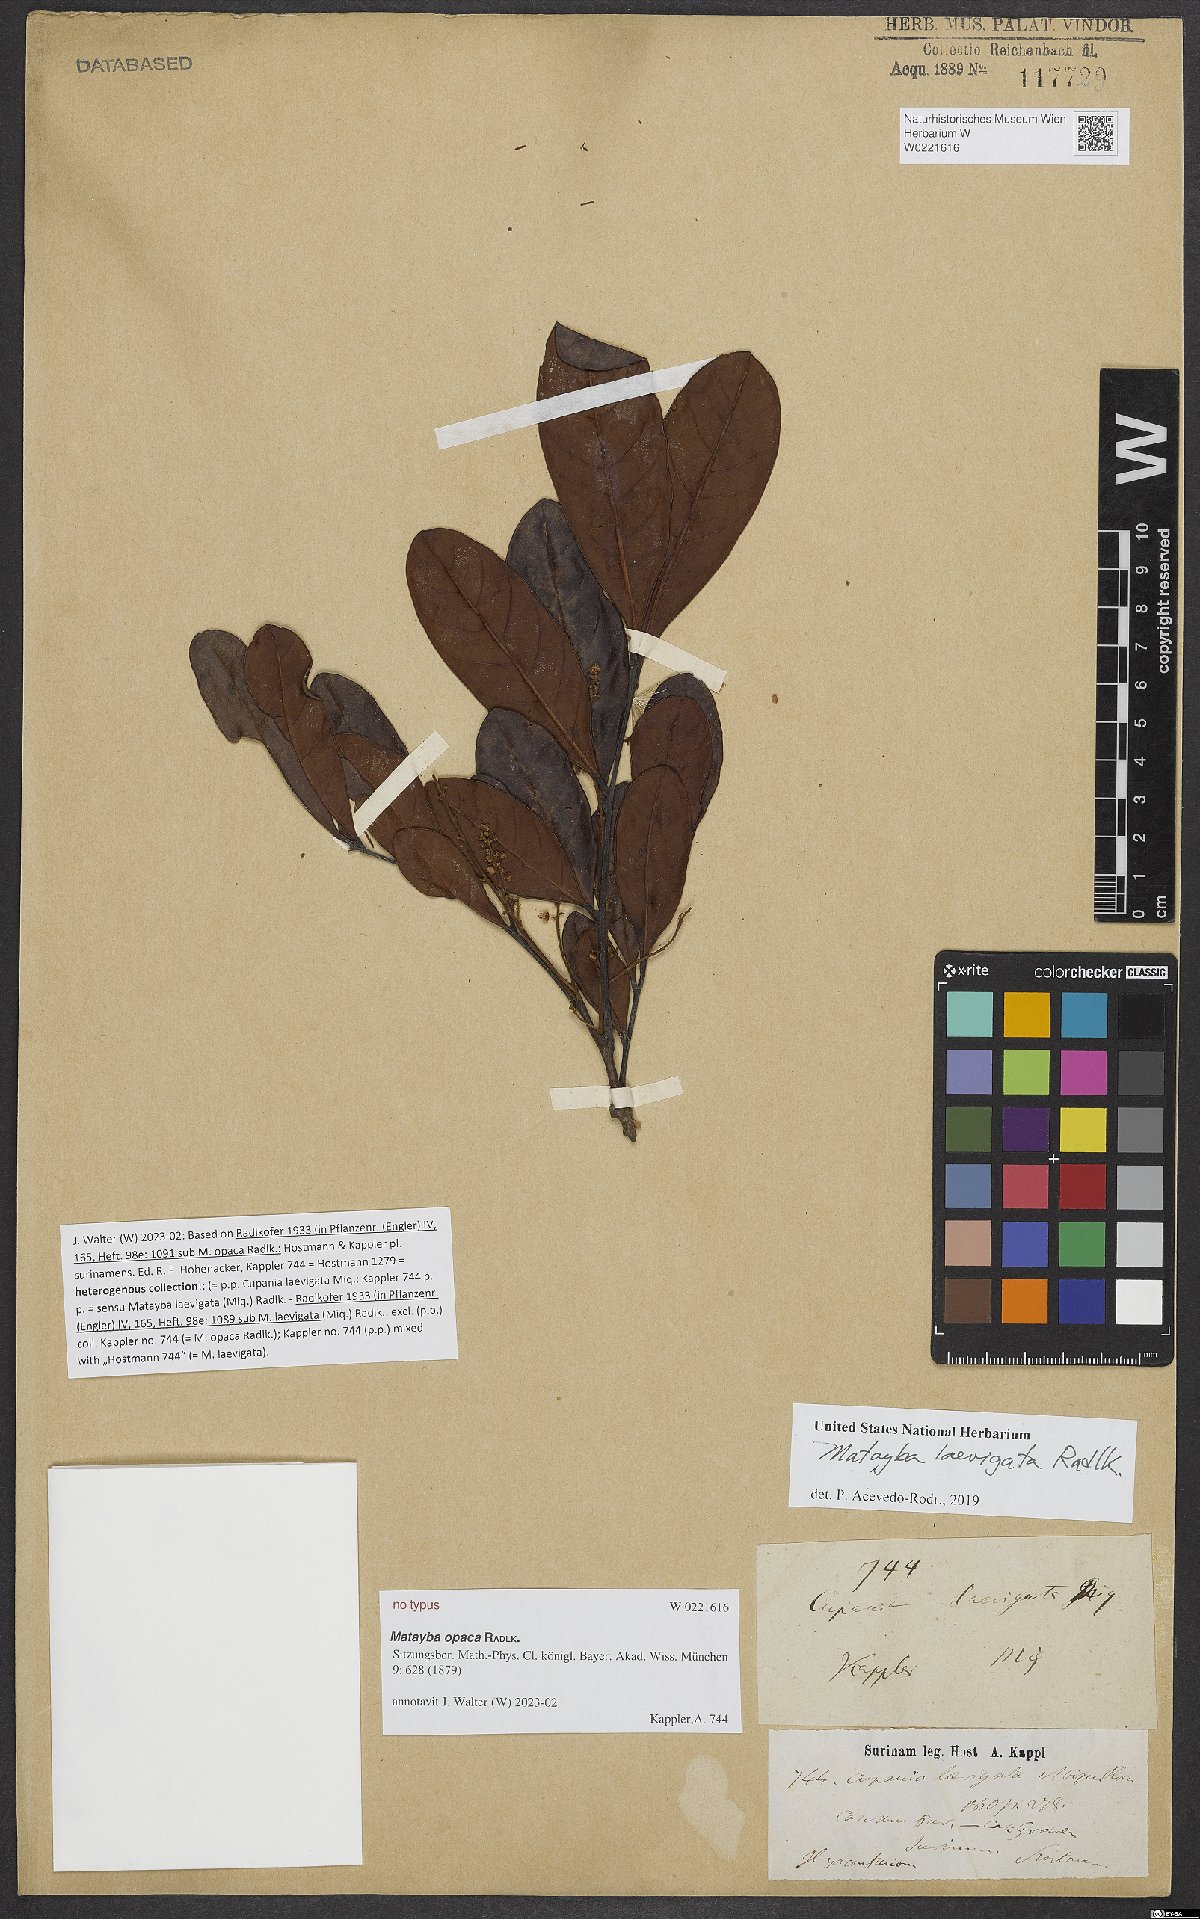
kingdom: Plantae
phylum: Tracheophyta
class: Magnoliopsida
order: Sapindales
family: Sapindaceae
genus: Matayba
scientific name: Matayba
